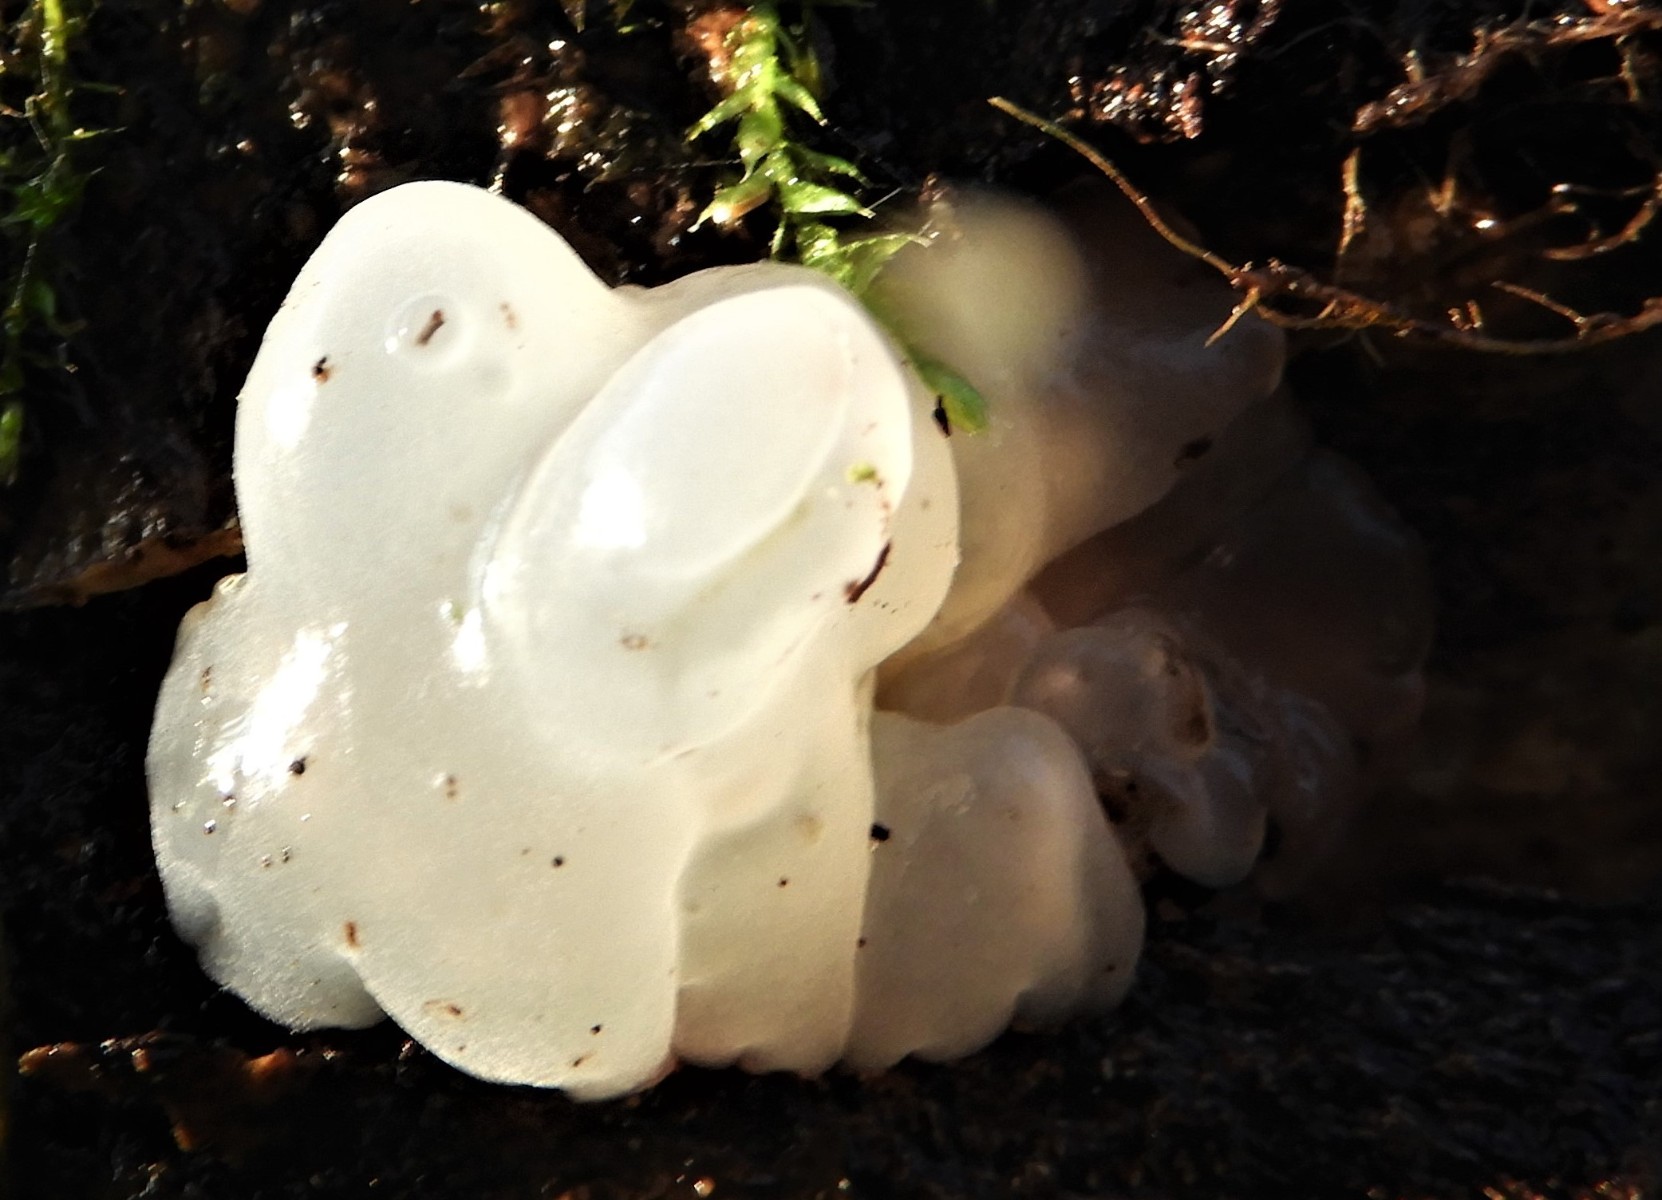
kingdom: Fungi
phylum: Basidiomycota
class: Agaricomycetes
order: Auriculariales
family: Hyaloriaceae
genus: Myxarium
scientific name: Myxarium nucleatum
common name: klar bævretop
